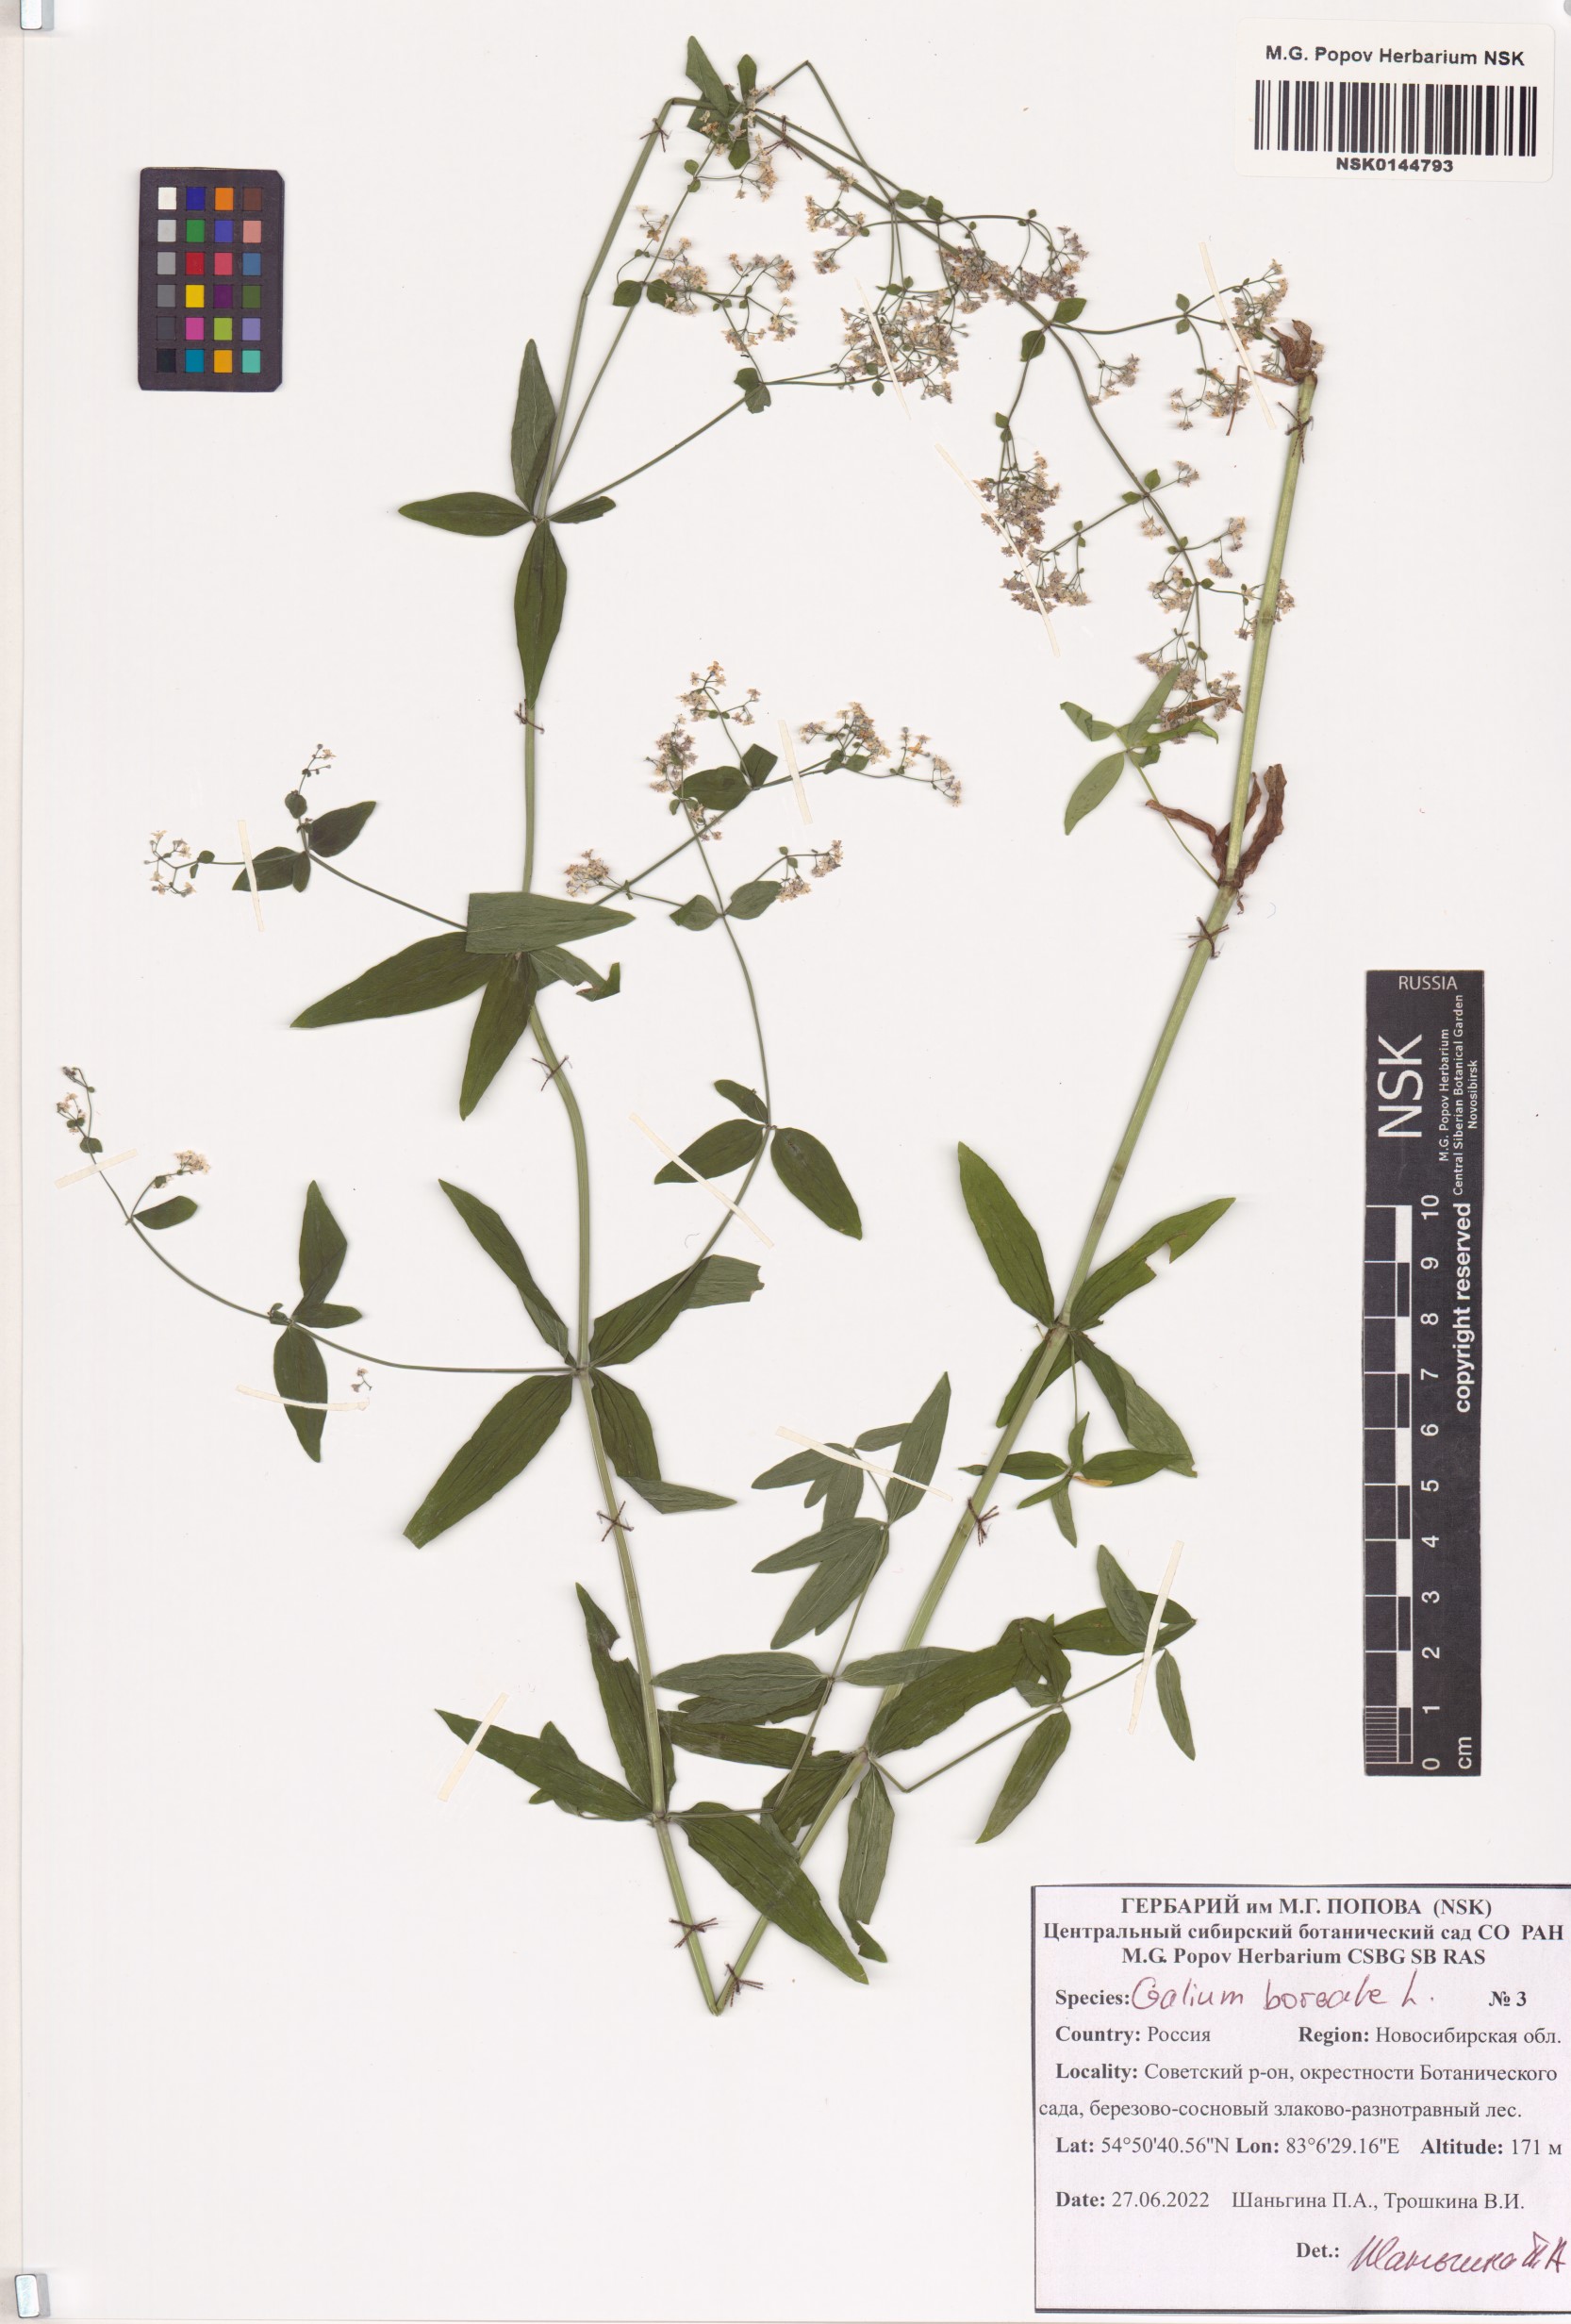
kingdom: Plantae
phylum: Tracheophyta
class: Magnoliopsida
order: Gentianales
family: Rubiaceae
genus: Galium
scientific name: Galium boreale
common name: Northern bedstraw
